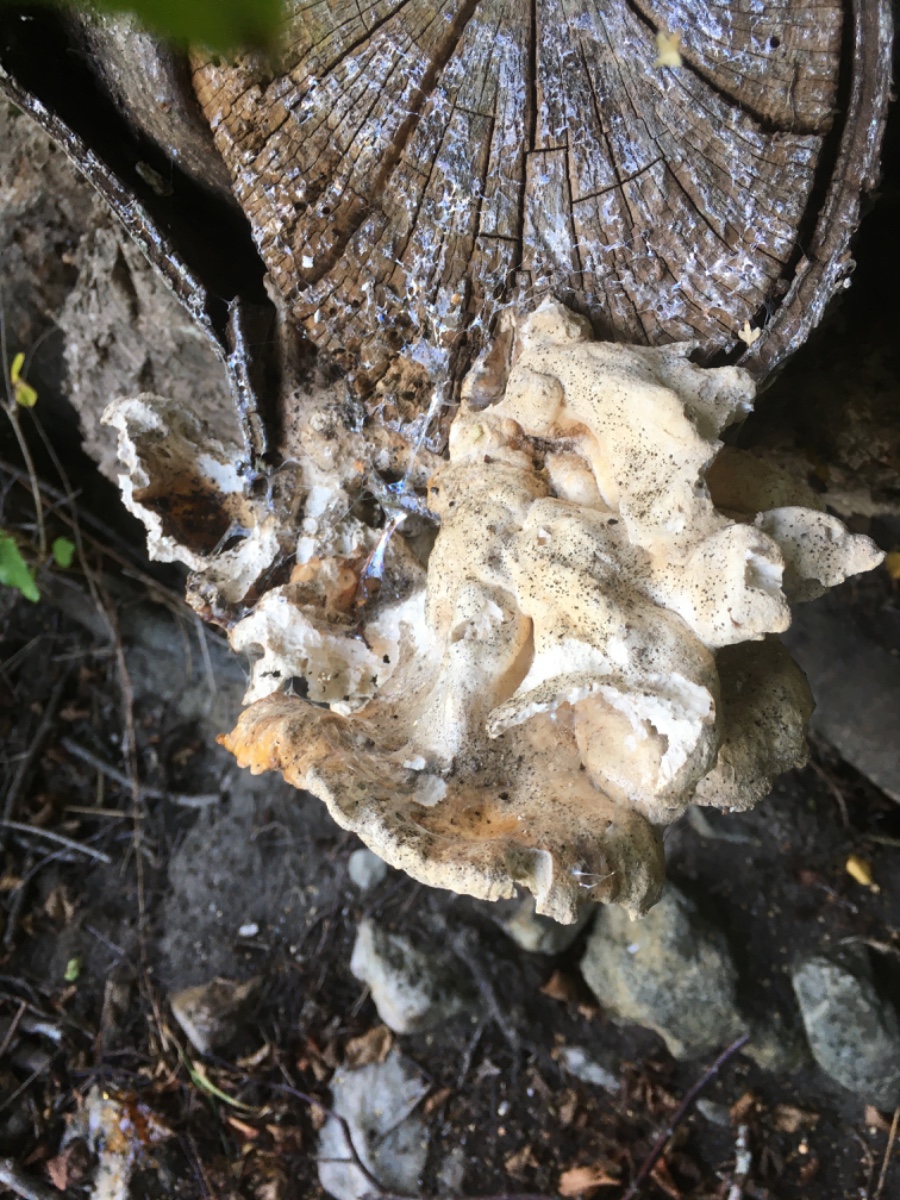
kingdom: Fungi
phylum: Basidiomycota
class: Agaricomycetes
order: Polyporales
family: Laetiporaceae
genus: Laetiporus
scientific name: Laetiporus sulphureus
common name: svovlporesvamp
